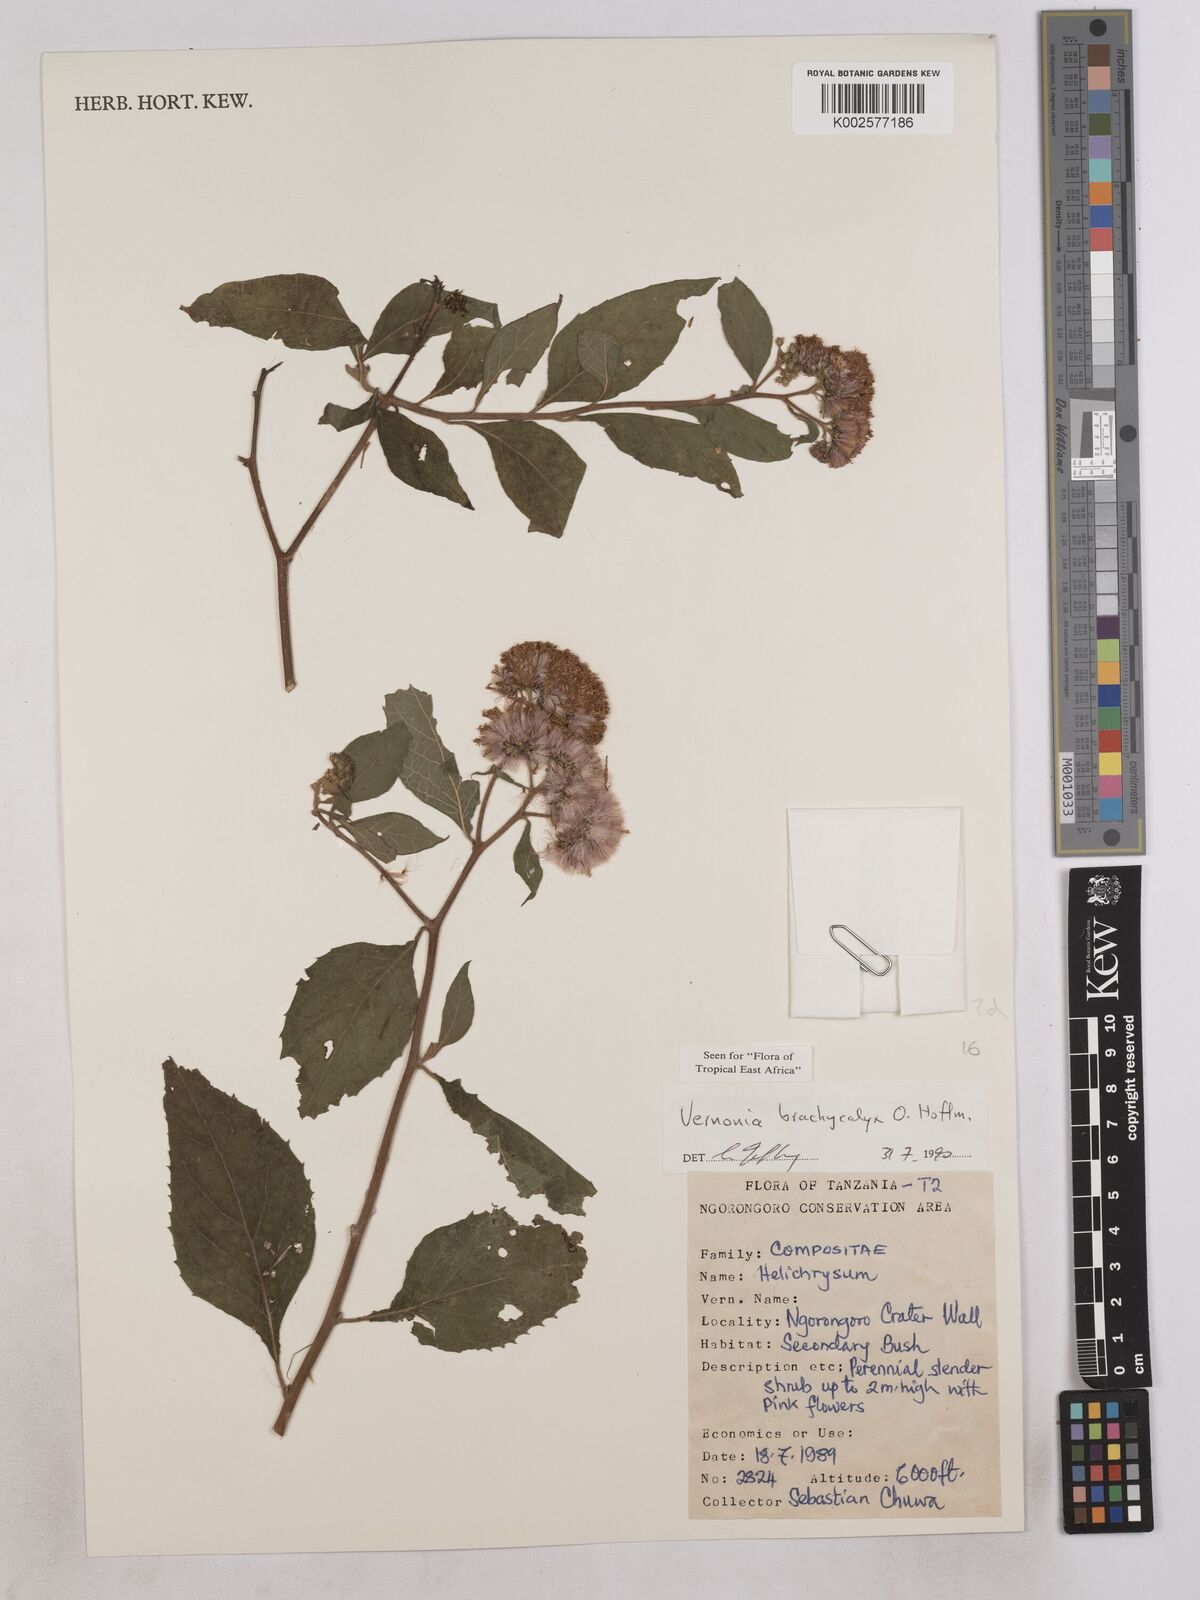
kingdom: Plantae
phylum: Tracheophyta
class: Magnoliopsida
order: Asterales
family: Asteraceae
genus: Hoffmannanthus
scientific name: Hoffmannanthus abbotianus
